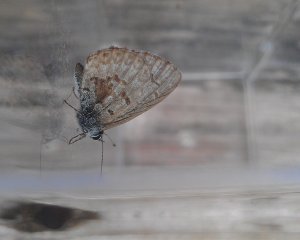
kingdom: Animalia
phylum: Arthropoda
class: Insecta
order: Lepidoptera
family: Lycaenidae
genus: Celastrina
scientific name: Celastrina lucia
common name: Northern Spring Azure
